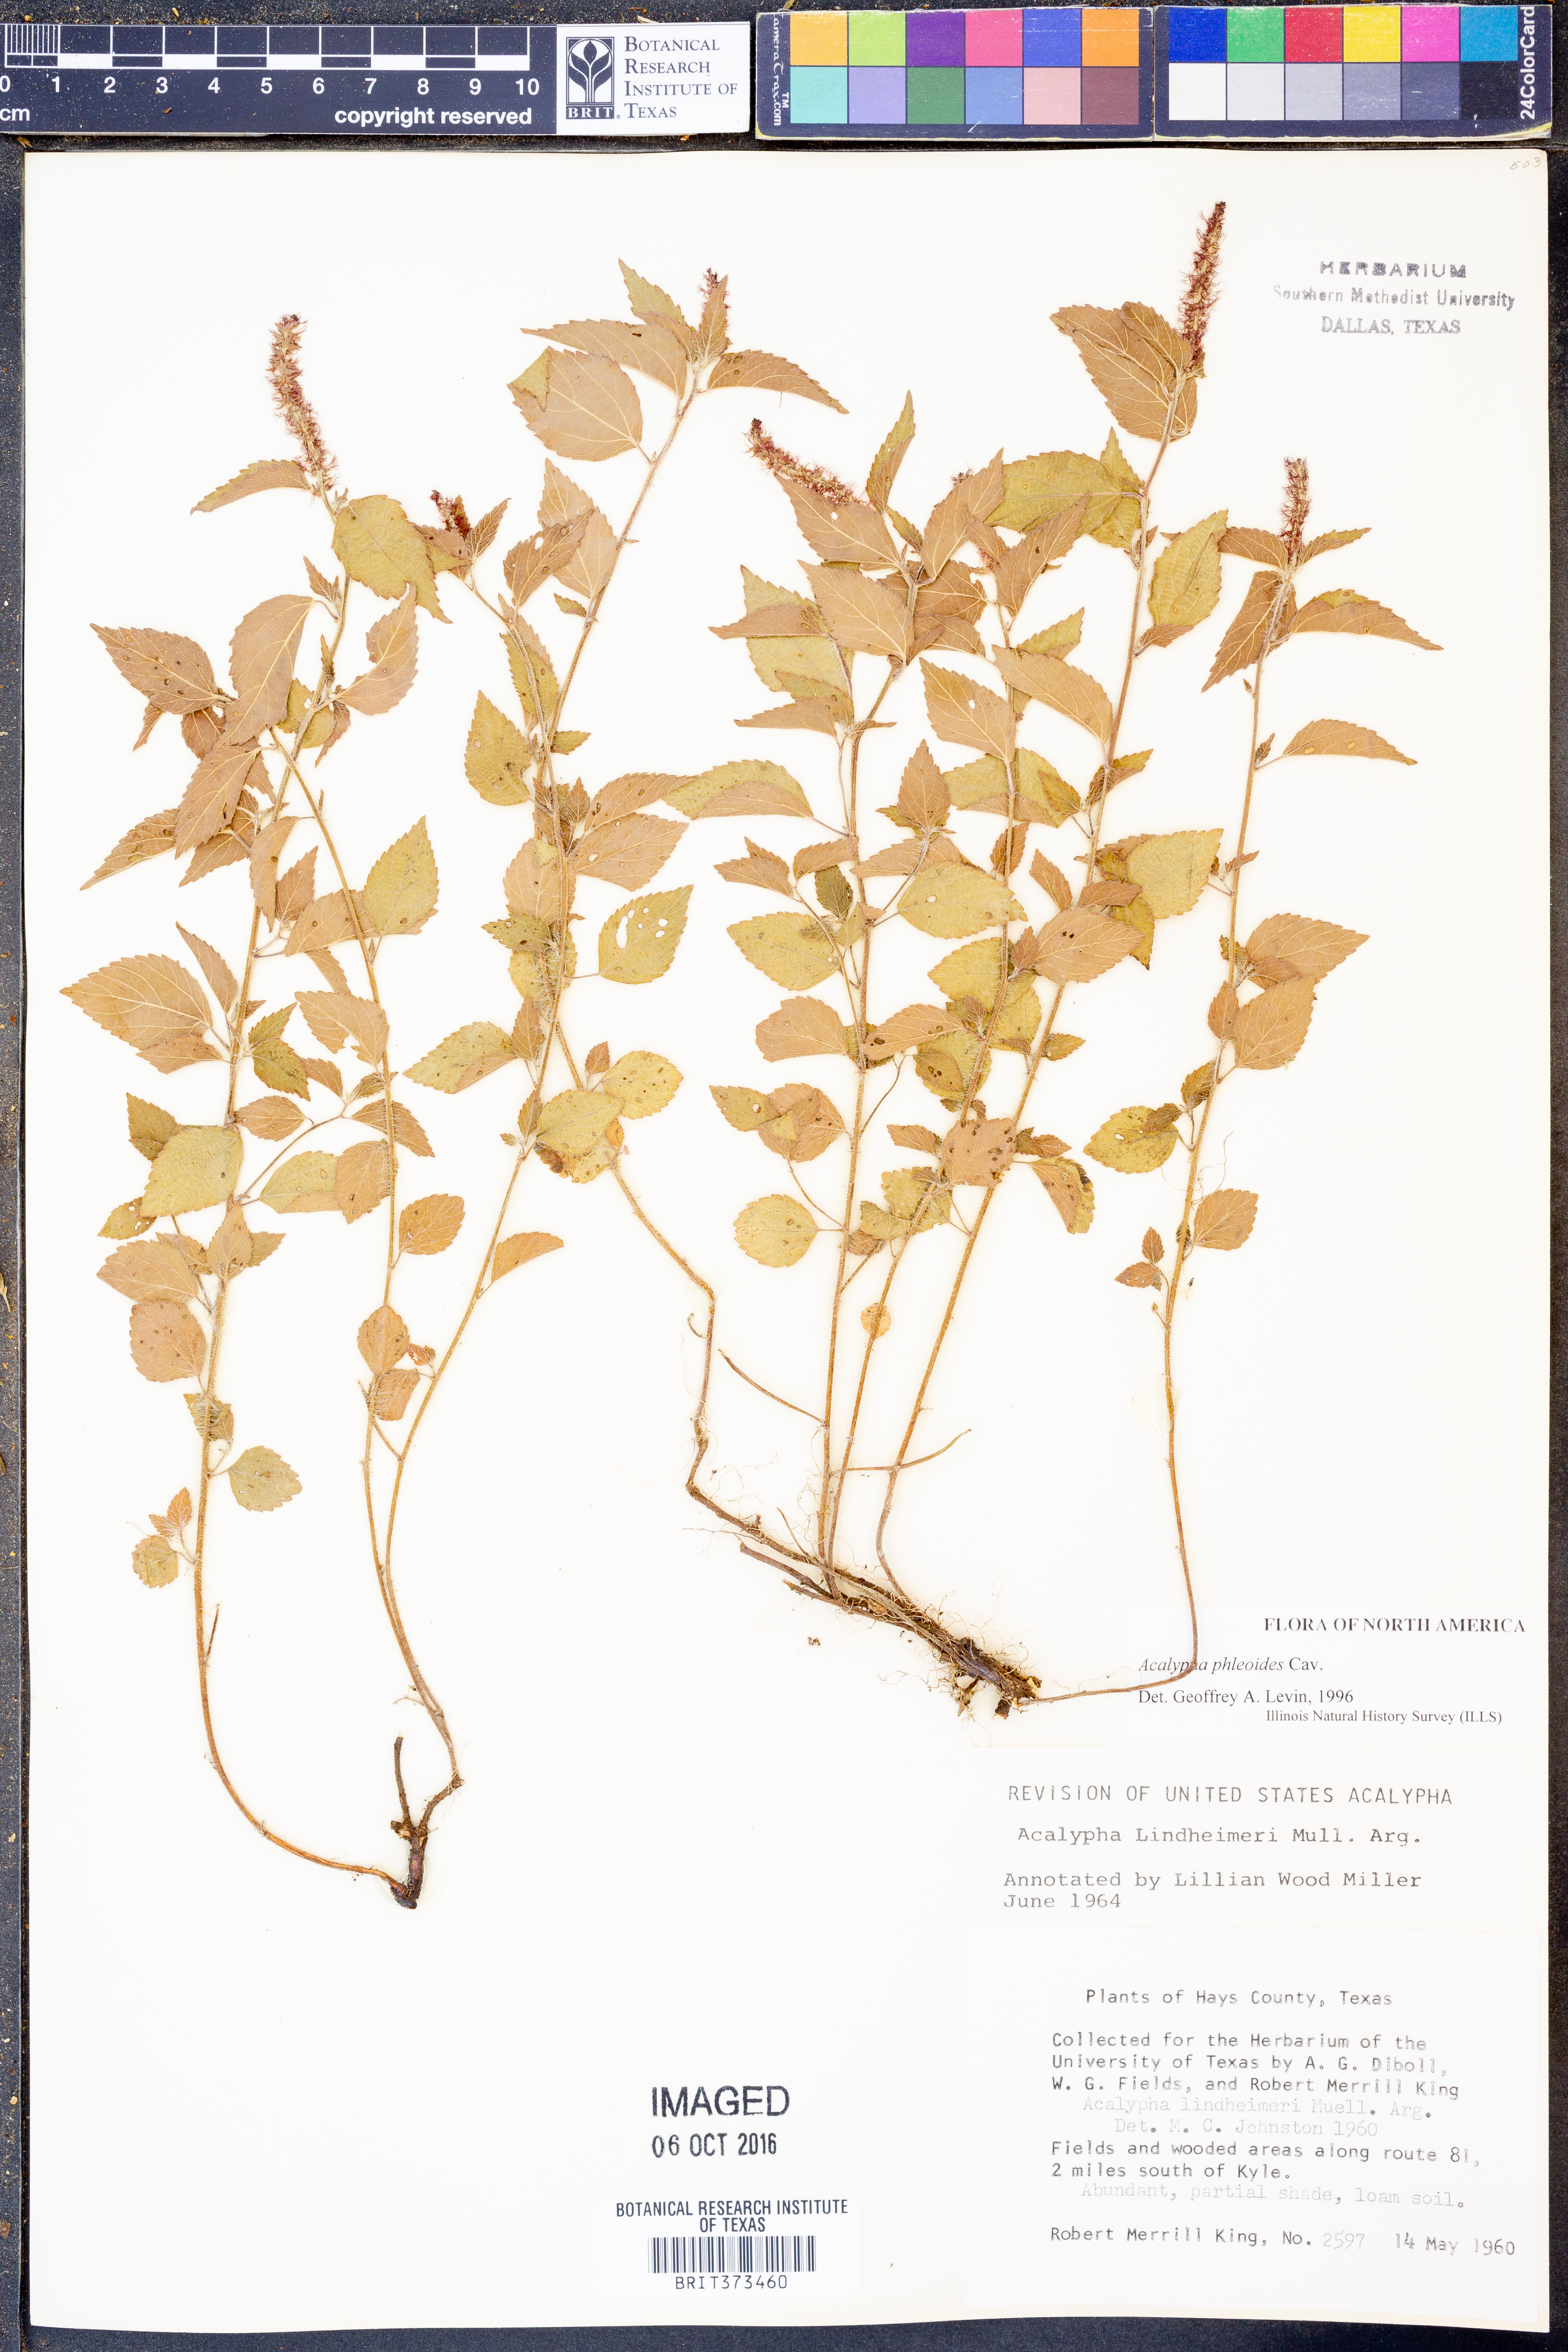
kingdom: Plantae
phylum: Tracheophyta
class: Magnoliopsida
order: Malpighiales
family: Euphorbiaceae
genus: Acalypha
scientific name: Acalypha phleoides
